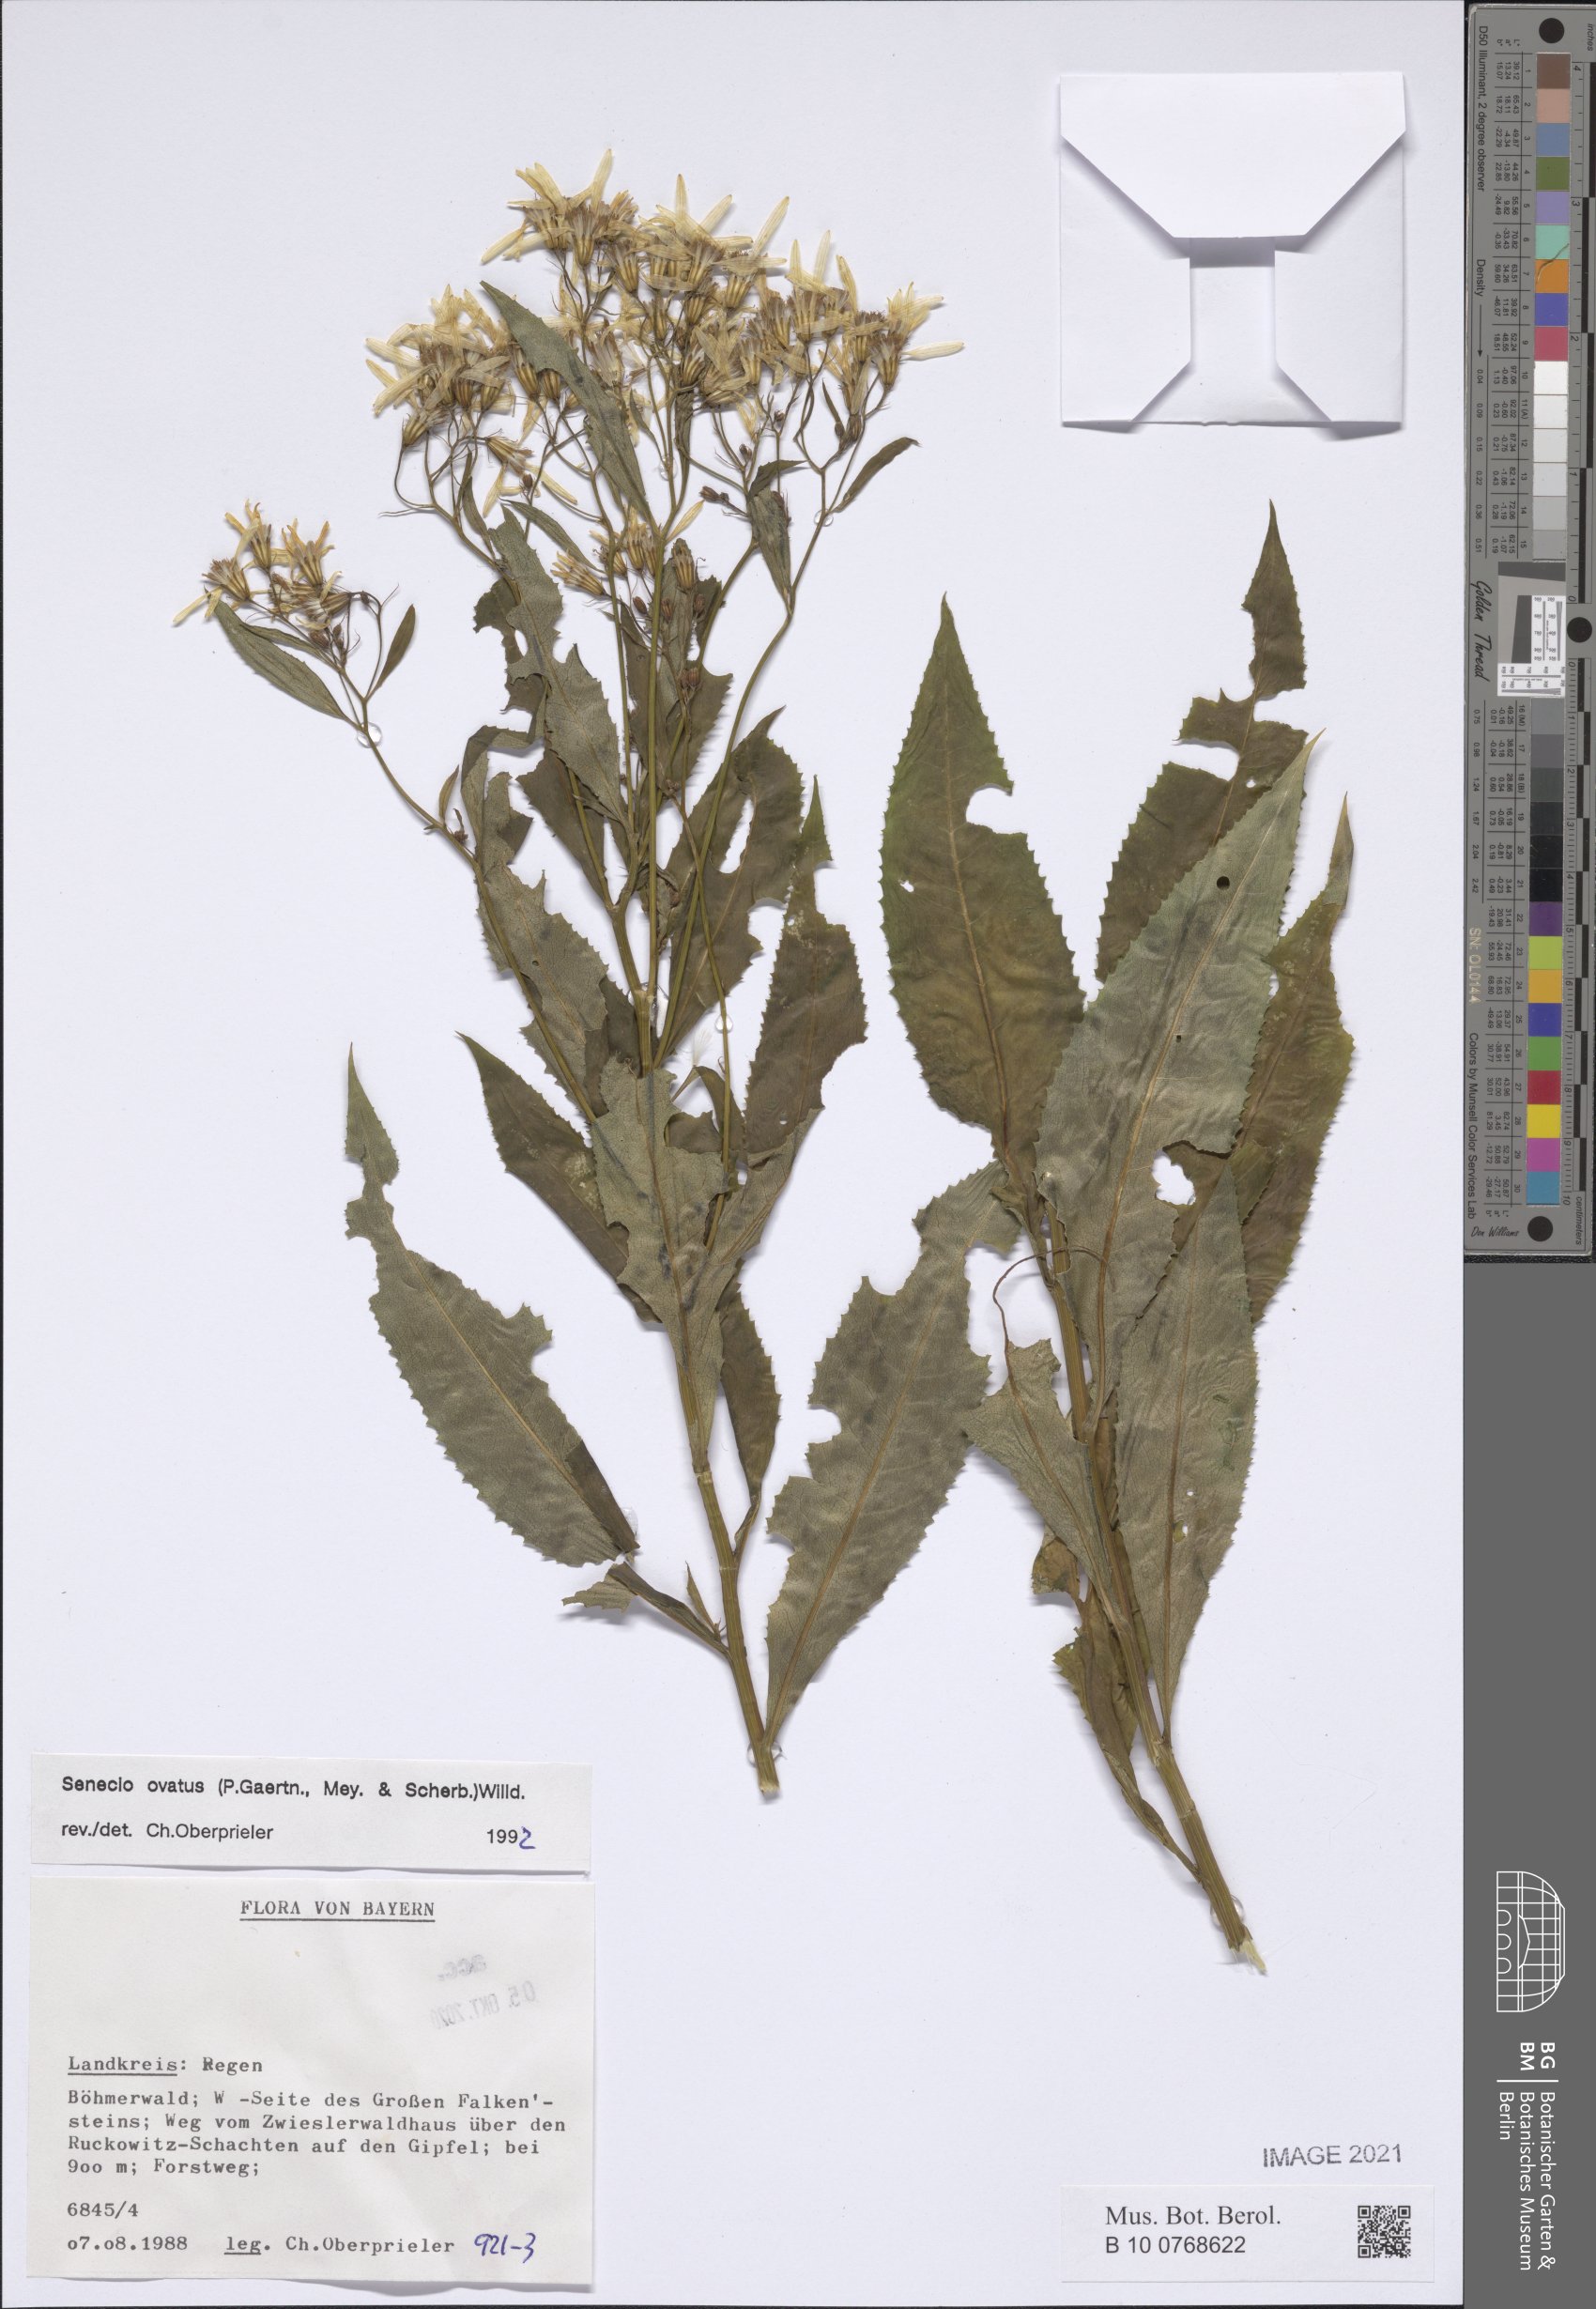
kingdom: Plantae
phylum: Tracheophyta
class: Magnoliopsida
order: Asterales
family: Asteraceae
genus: Senecio
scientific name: Senecio ovatus
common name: Wood ragwort
